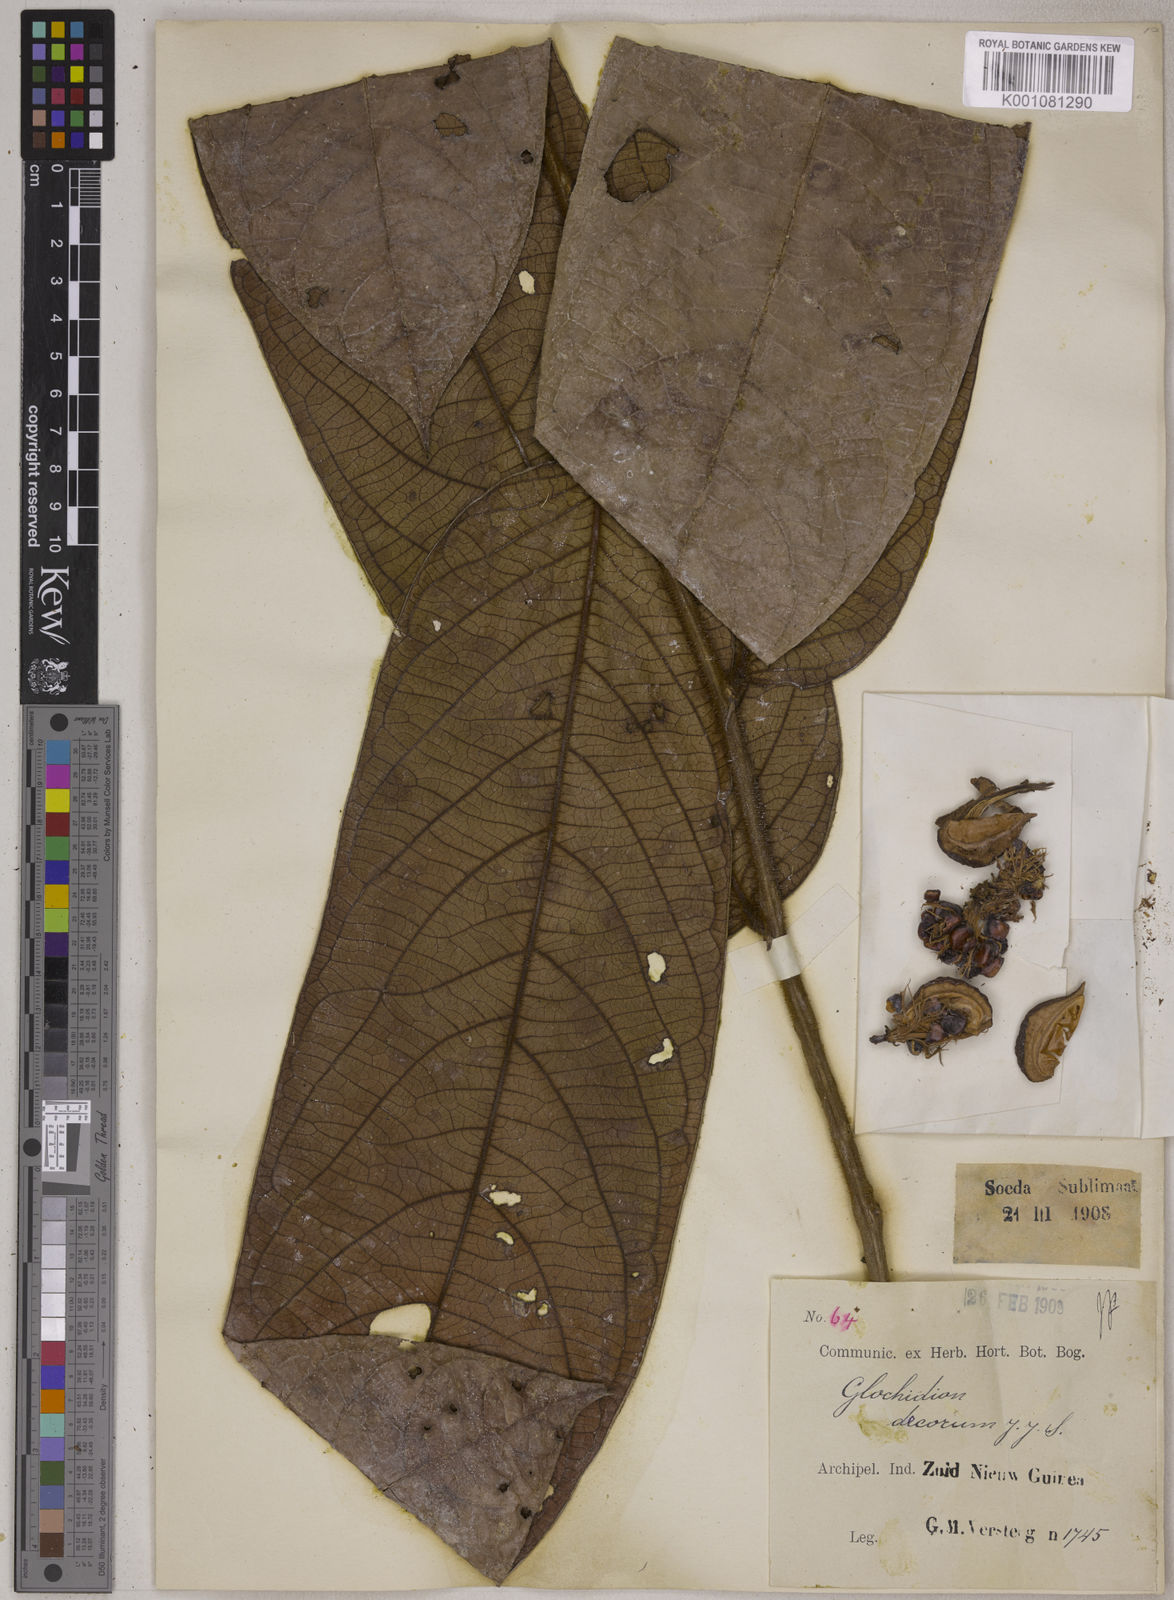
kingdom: Plantae
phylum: Tracheophyta
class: Magnoliopsida
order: Malpighiales
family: Phyllanthaceae
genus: Glochidion
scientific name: Glochidion decorum
